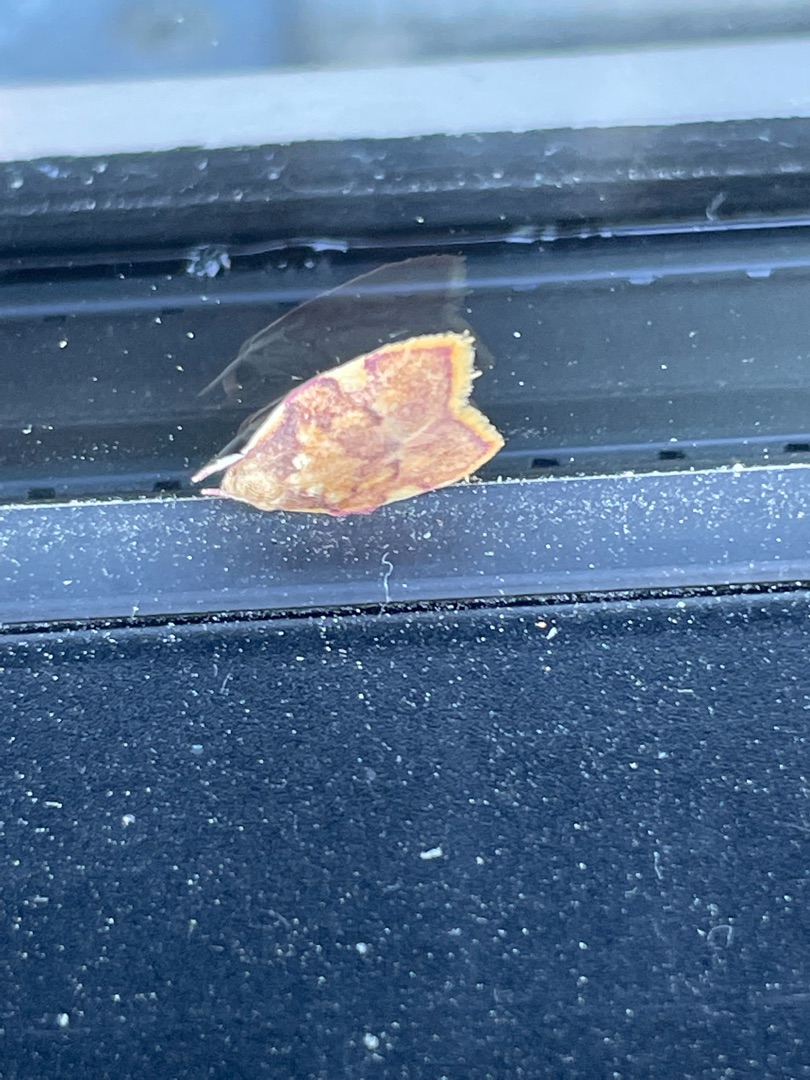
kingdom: Animalia
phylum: Arthropoda
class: Insecta
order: Lepidoptera
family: Peleopodidae
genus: Carcina
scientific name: Carcina quercana
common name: Egeprydvinge
